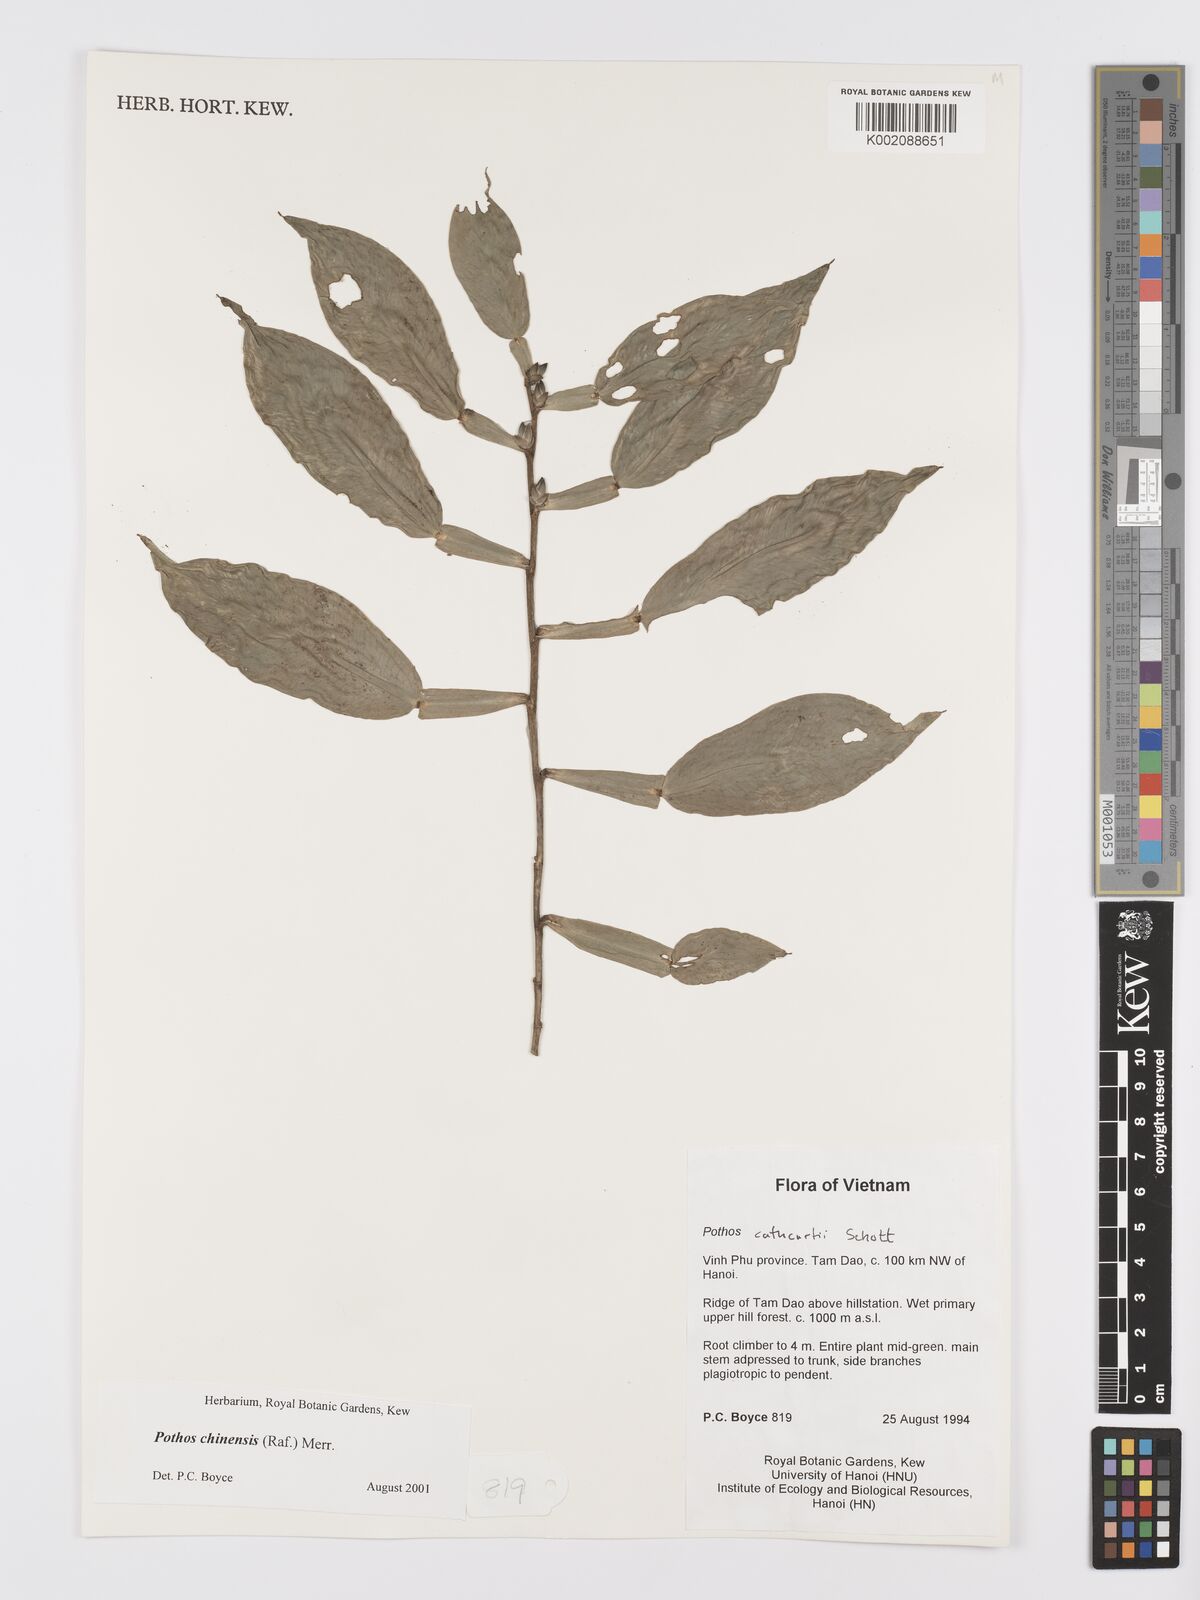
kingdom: Plantae
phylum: Tracheophyta
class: Liliopsida
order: Alismatales
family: Araceae
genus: Pothos
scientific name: Pothos chinensis
